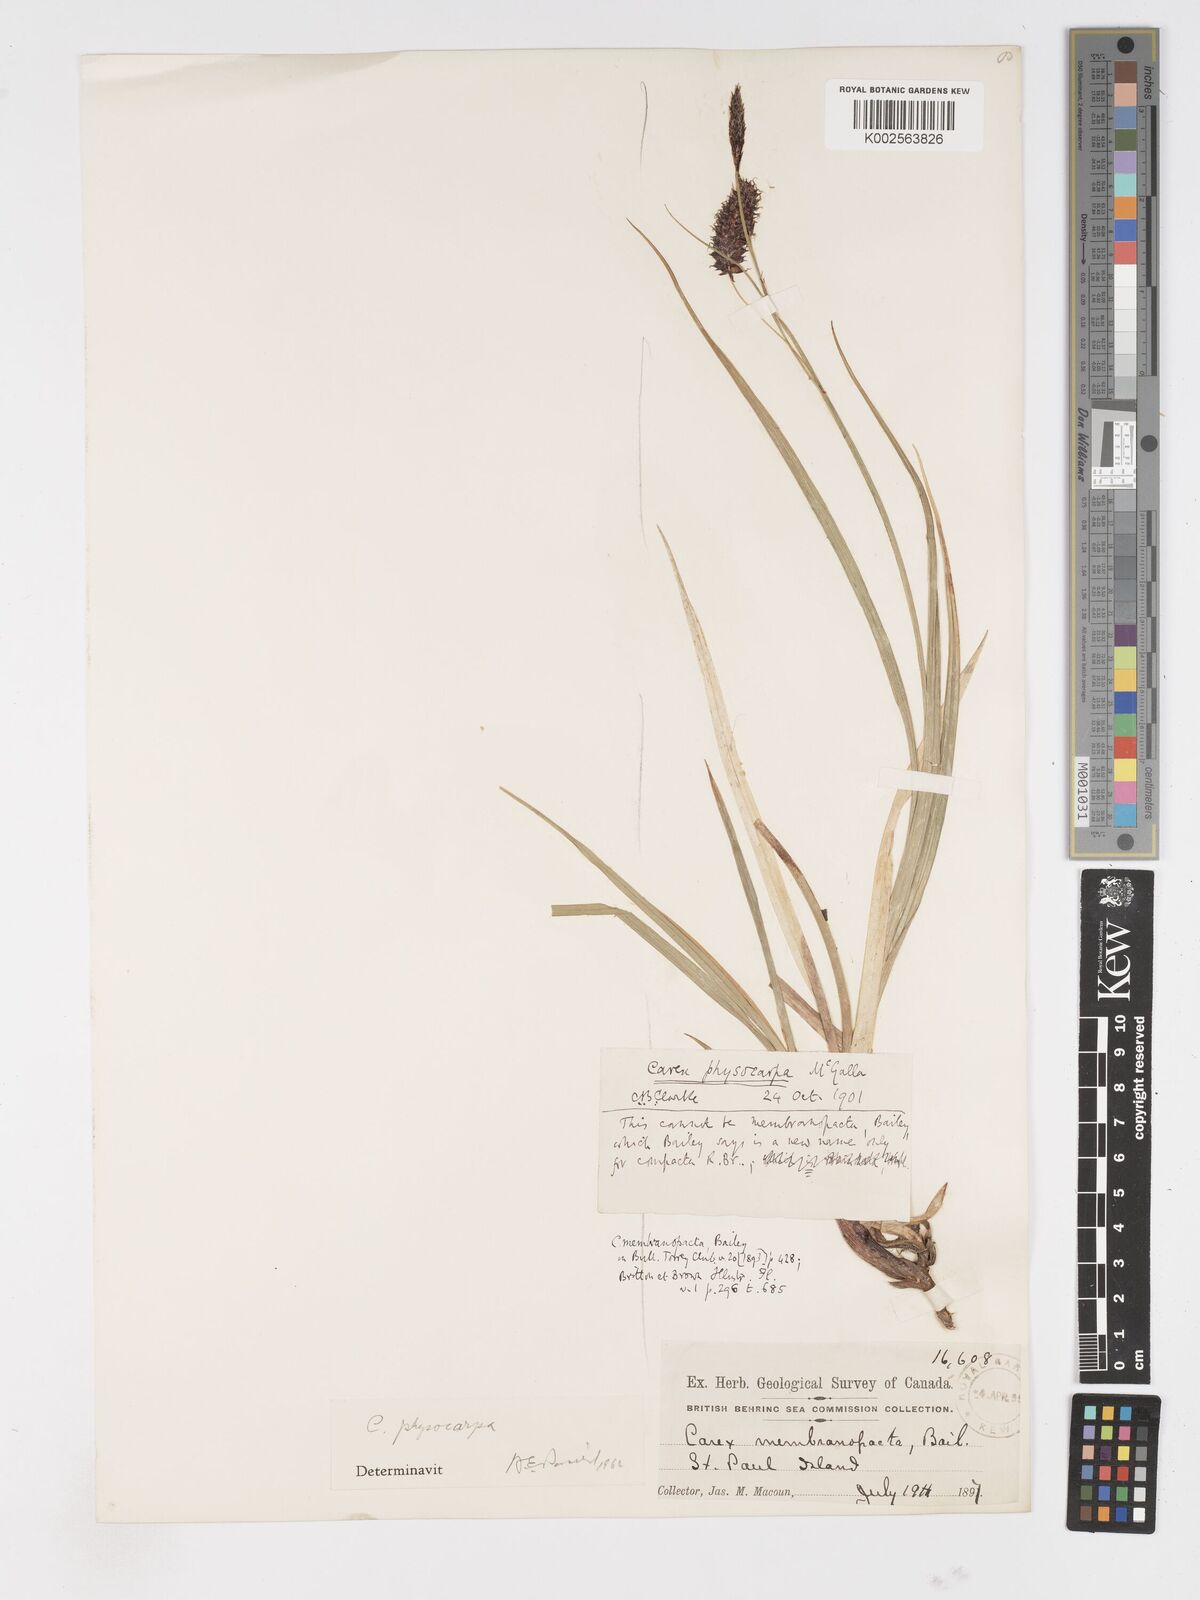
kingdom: Plantae
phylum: Tracheophyta
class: Liliopsida
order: Poales
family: Cyperaceae
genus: Carex
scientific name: Carex membranacea
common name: Fragile sedge
